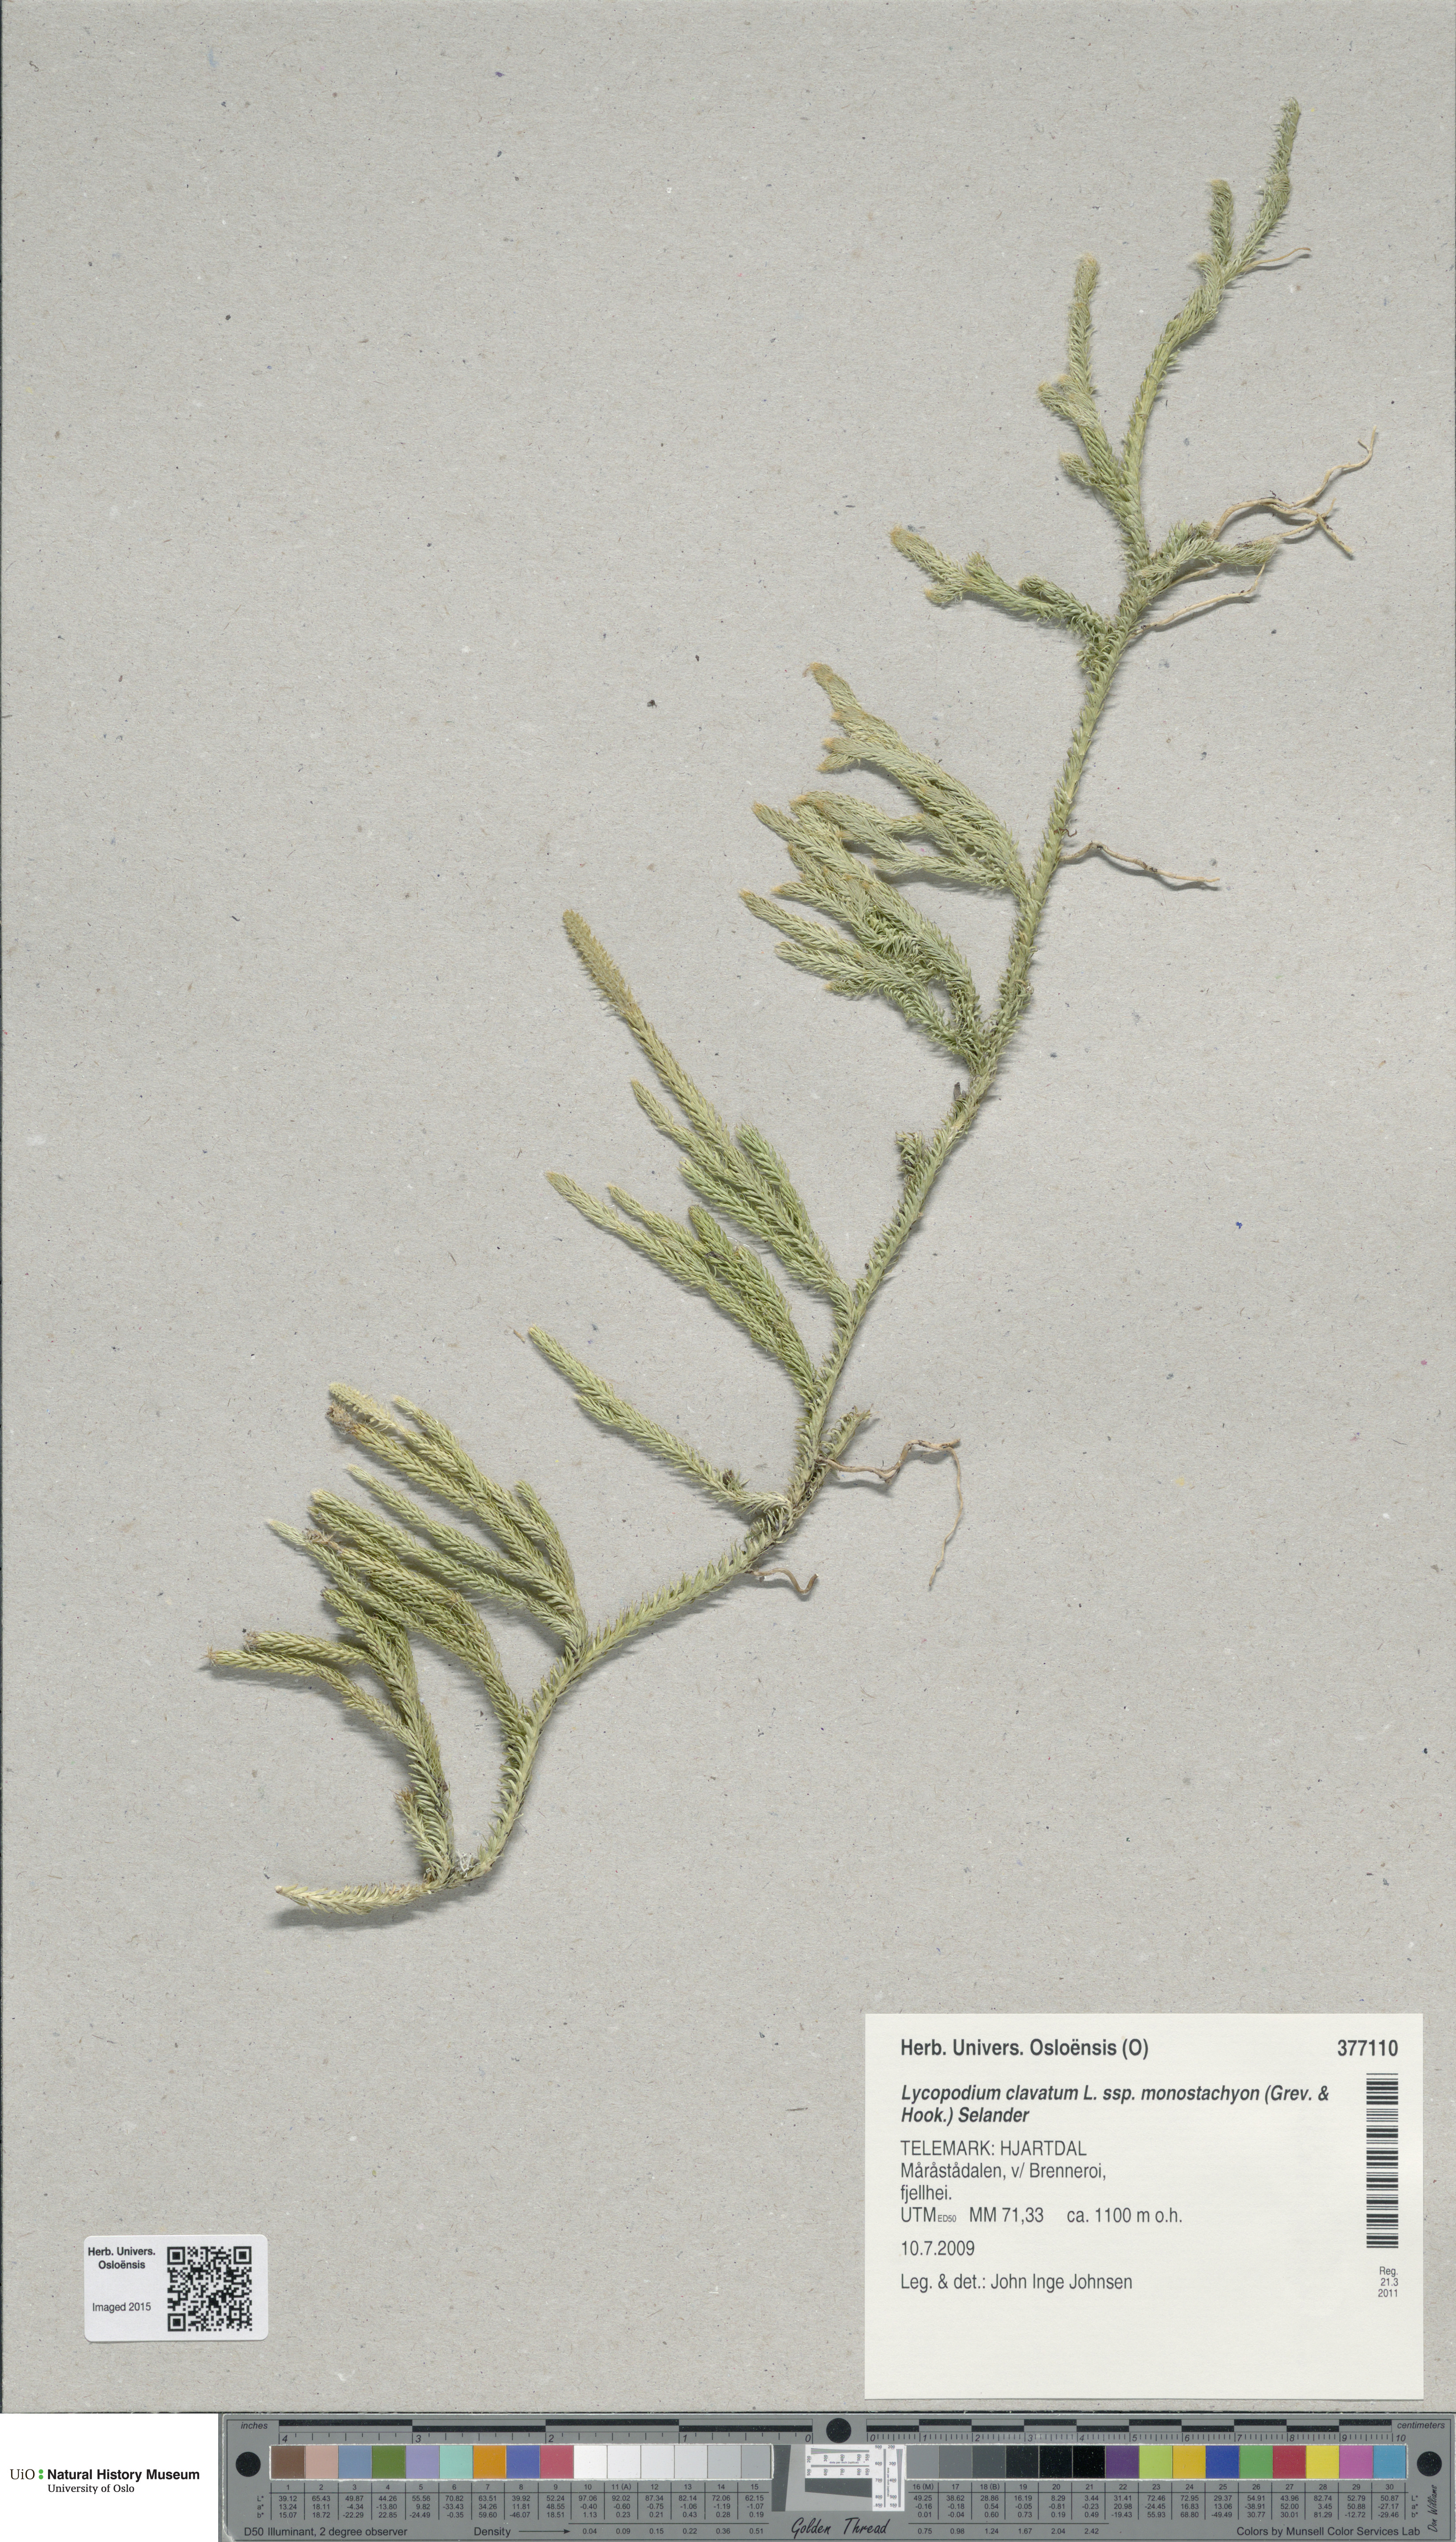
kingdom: Plantae
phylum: Tracheophyta
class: Lycopodiopsida
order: Lycopodiales
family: Lycopodiaceae
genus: Lycopodium
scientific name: Lycopodium lagopus
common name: One-cone clubmoss
